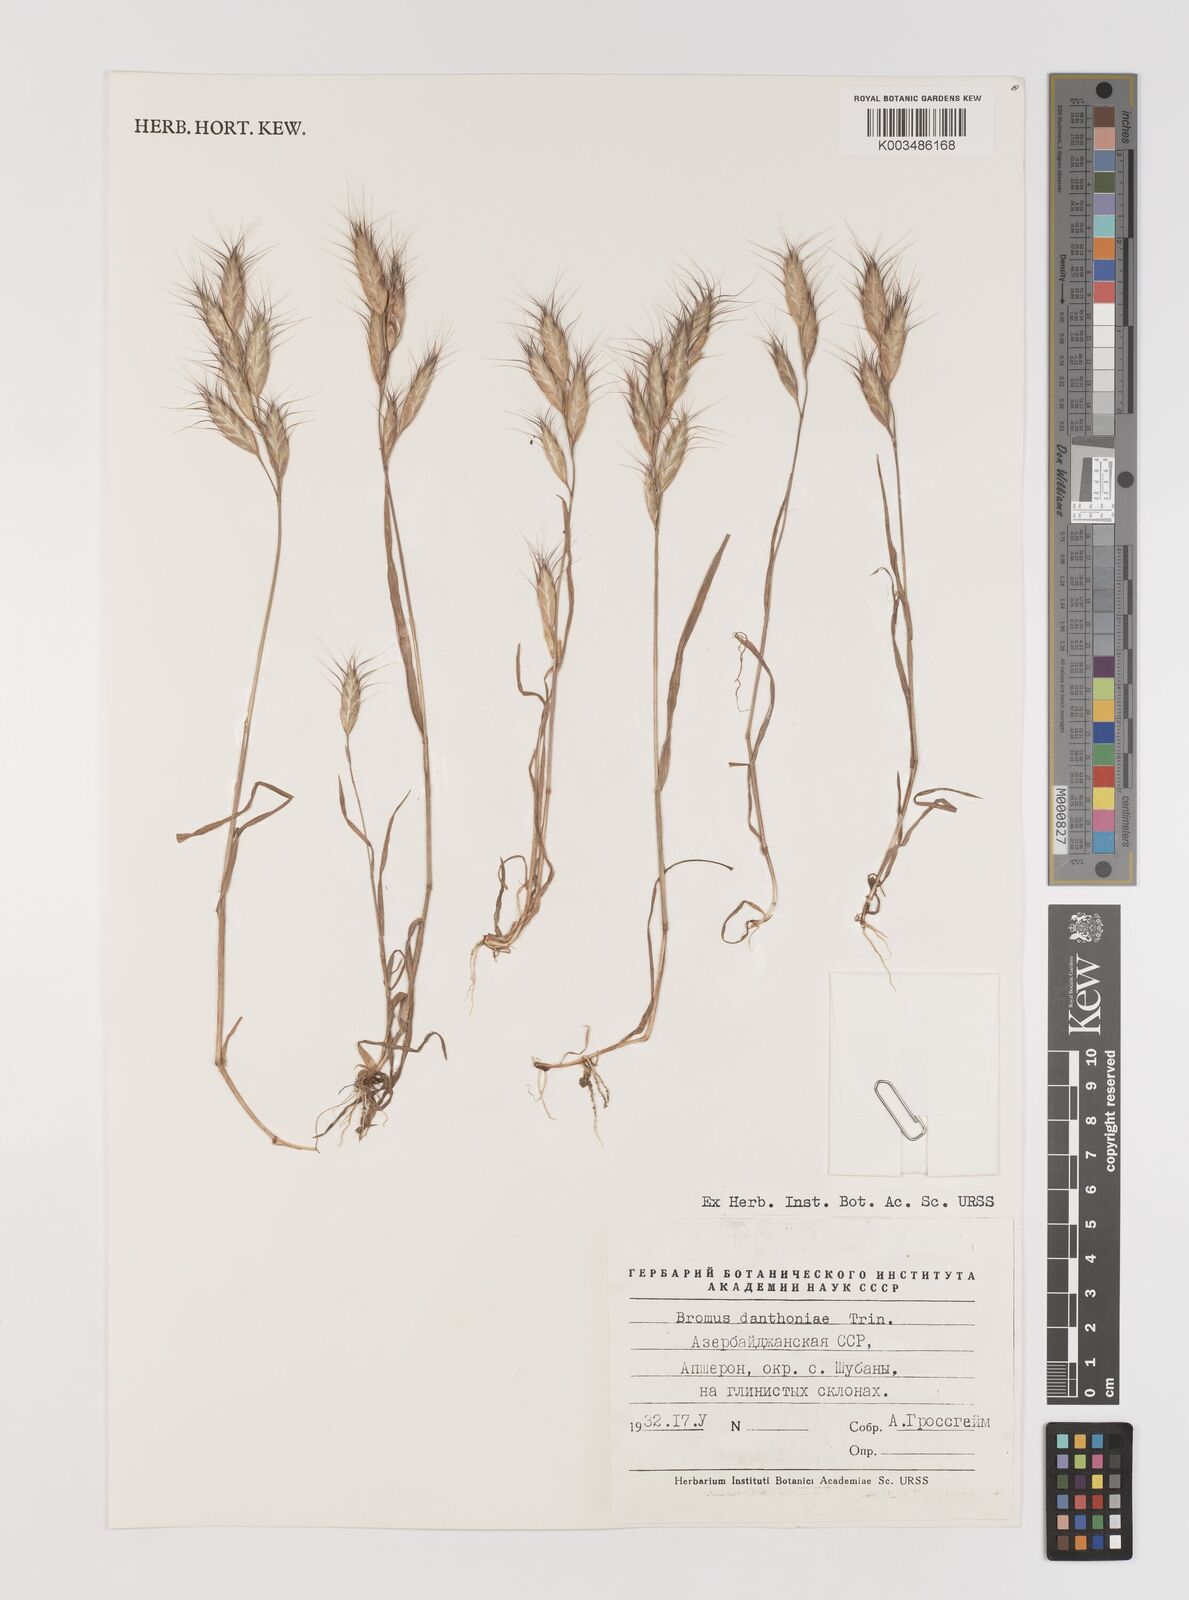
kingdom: Plantae
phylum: Tracheophyta
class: Liliopsida
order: Poales
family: Poaceae
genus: Bromus
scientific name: Bromus danthoniae
